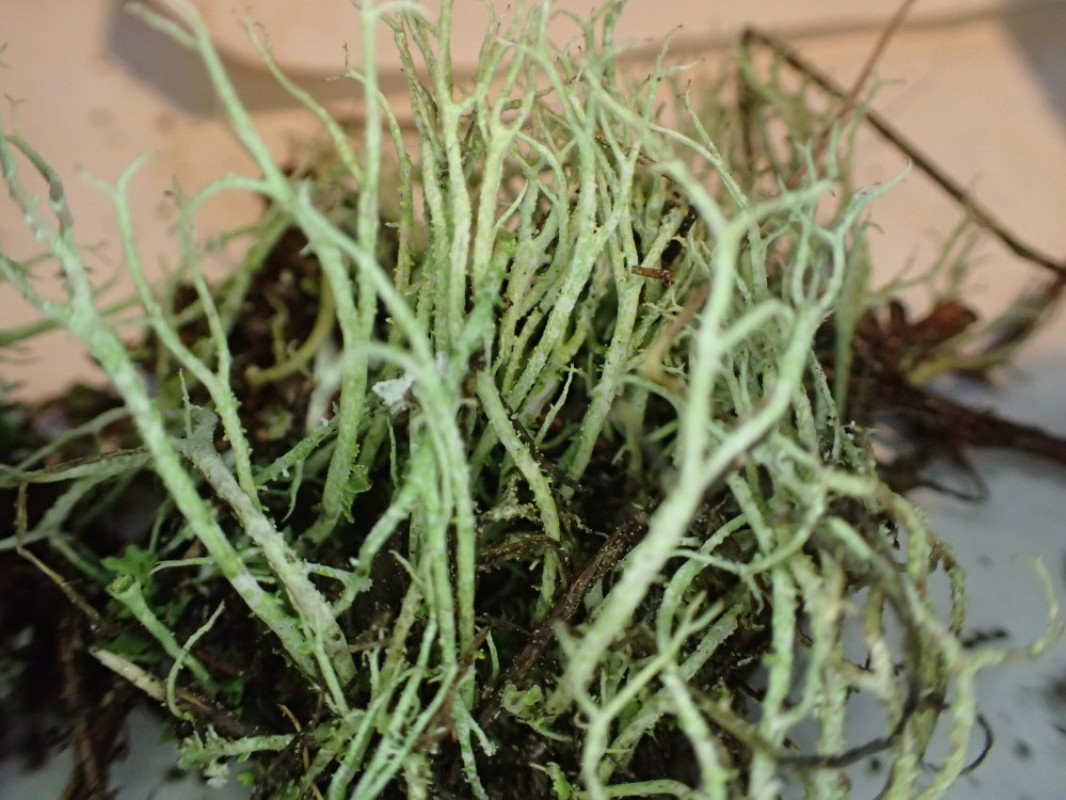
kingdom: Fungi
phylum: Ascomycota
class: Lecanoromycetes
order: Lecanorales
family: Cladoniaceae
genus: Cladonia
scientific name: Cladonia scabriuscula
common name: ru bægerlav
